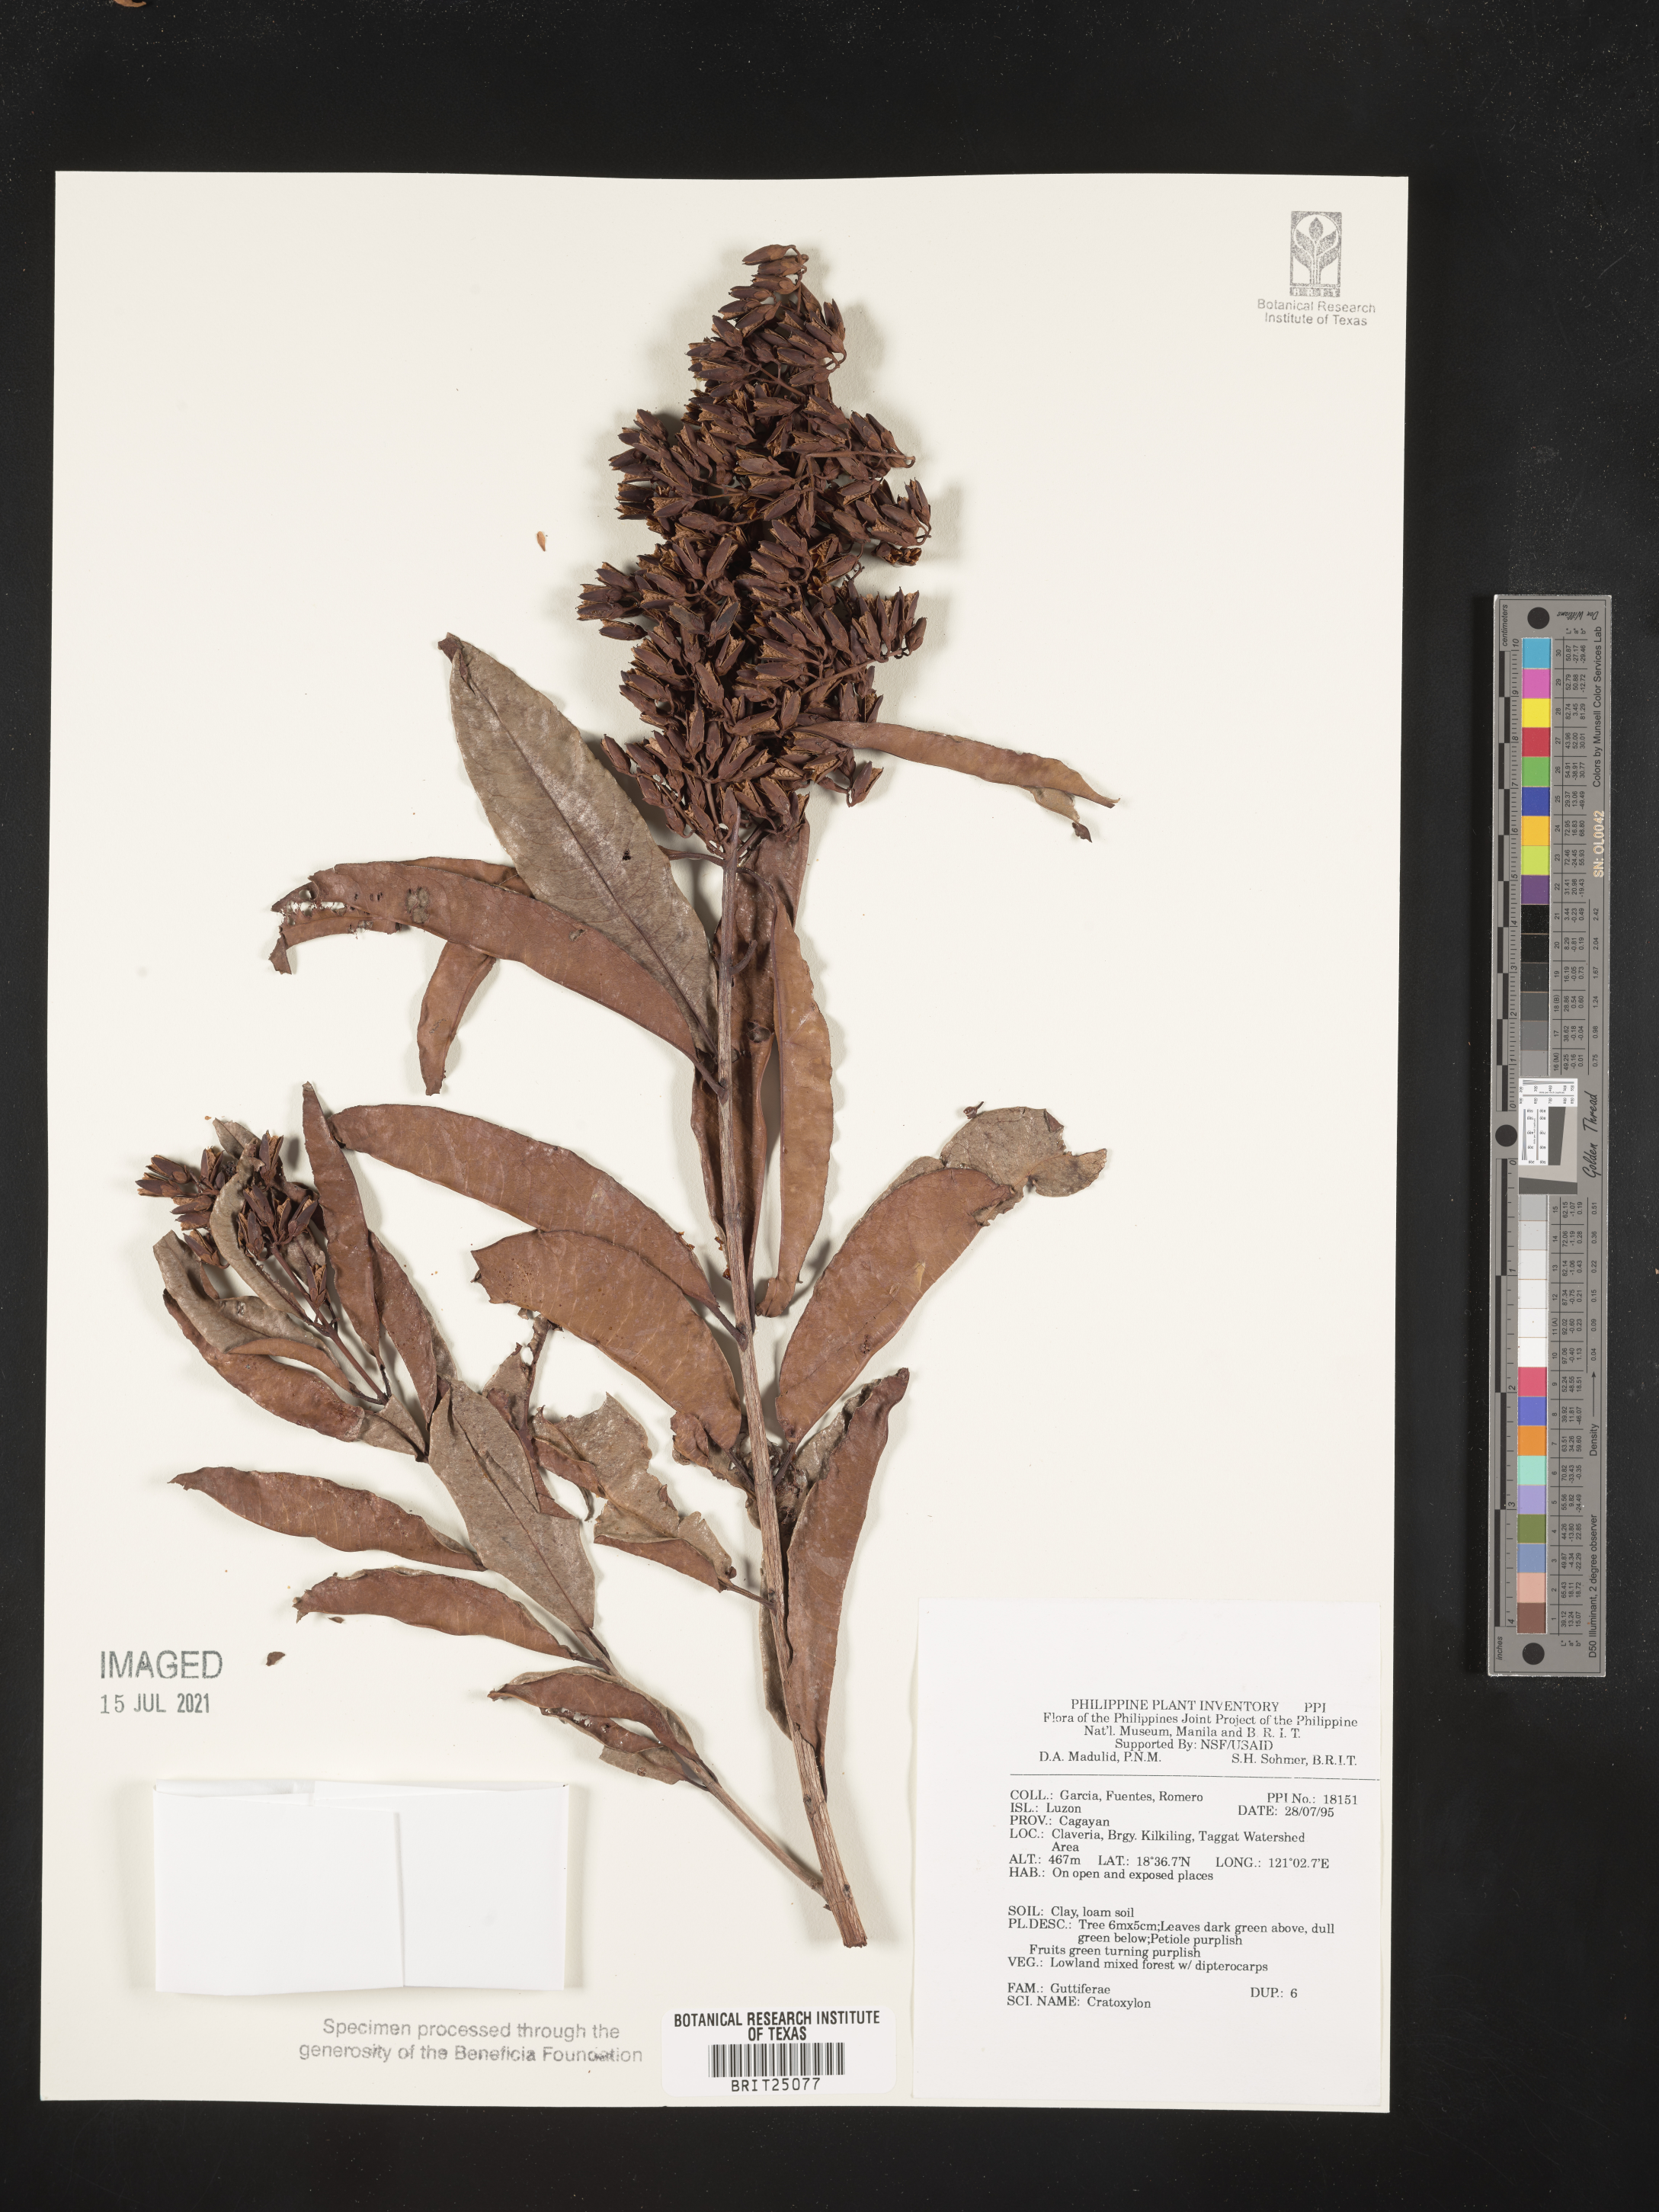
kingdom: Plantae
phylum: Tracheophyta
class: Magnoliopsida
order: Malpighiales
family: Hypericaceae
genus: Cratoxylum
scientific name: Cratoxylum
